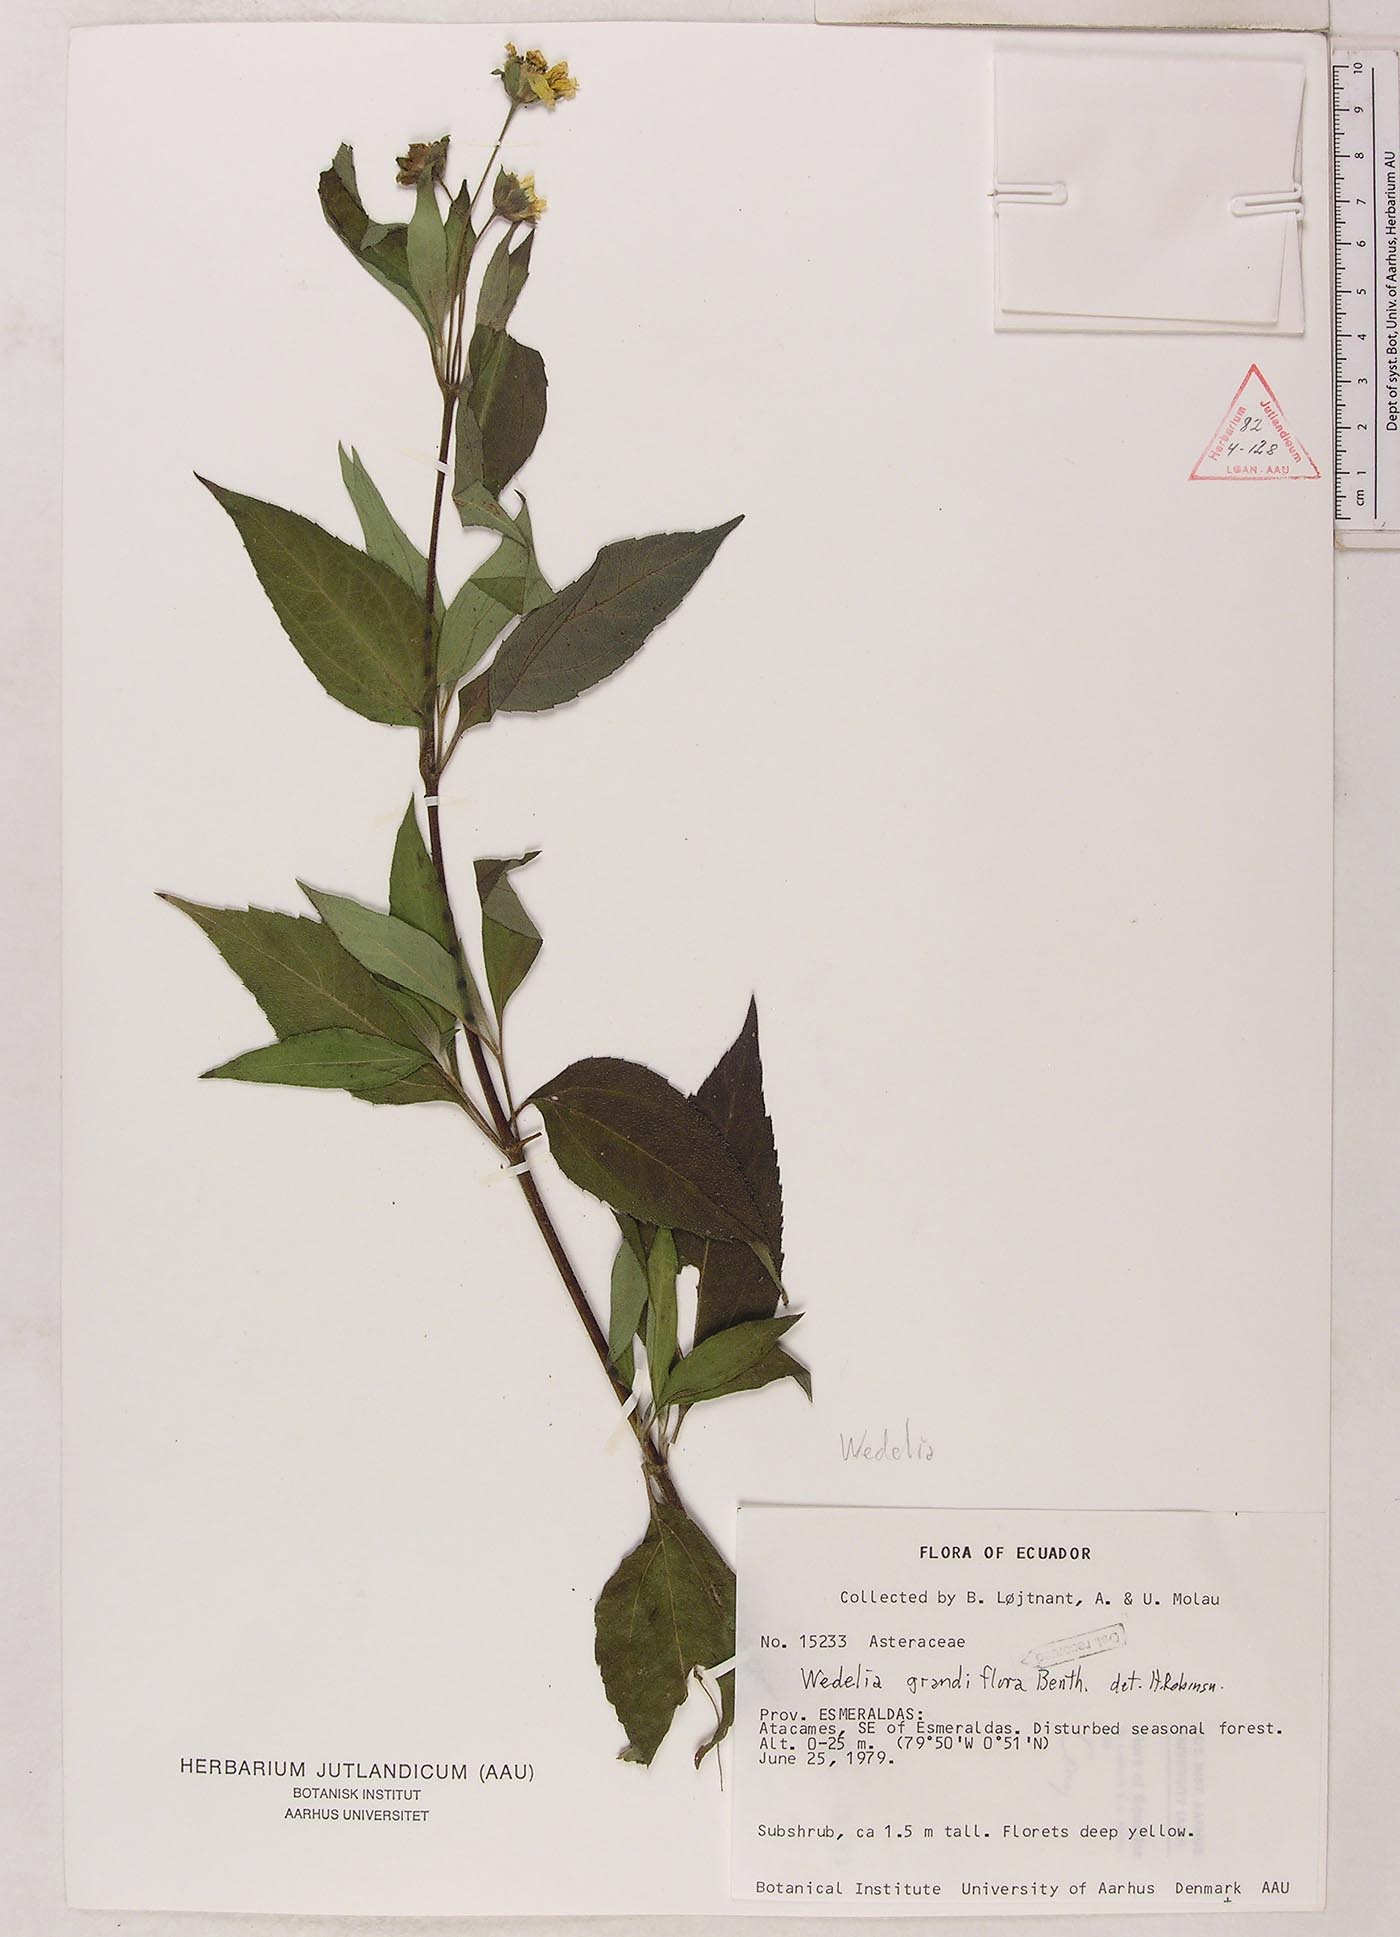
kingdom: Plantae
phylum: Tracheophyta
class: Magnoliopsida
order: Asterales
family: Asteraceae
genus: Wedelia
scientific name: Wedelia grandiflora
